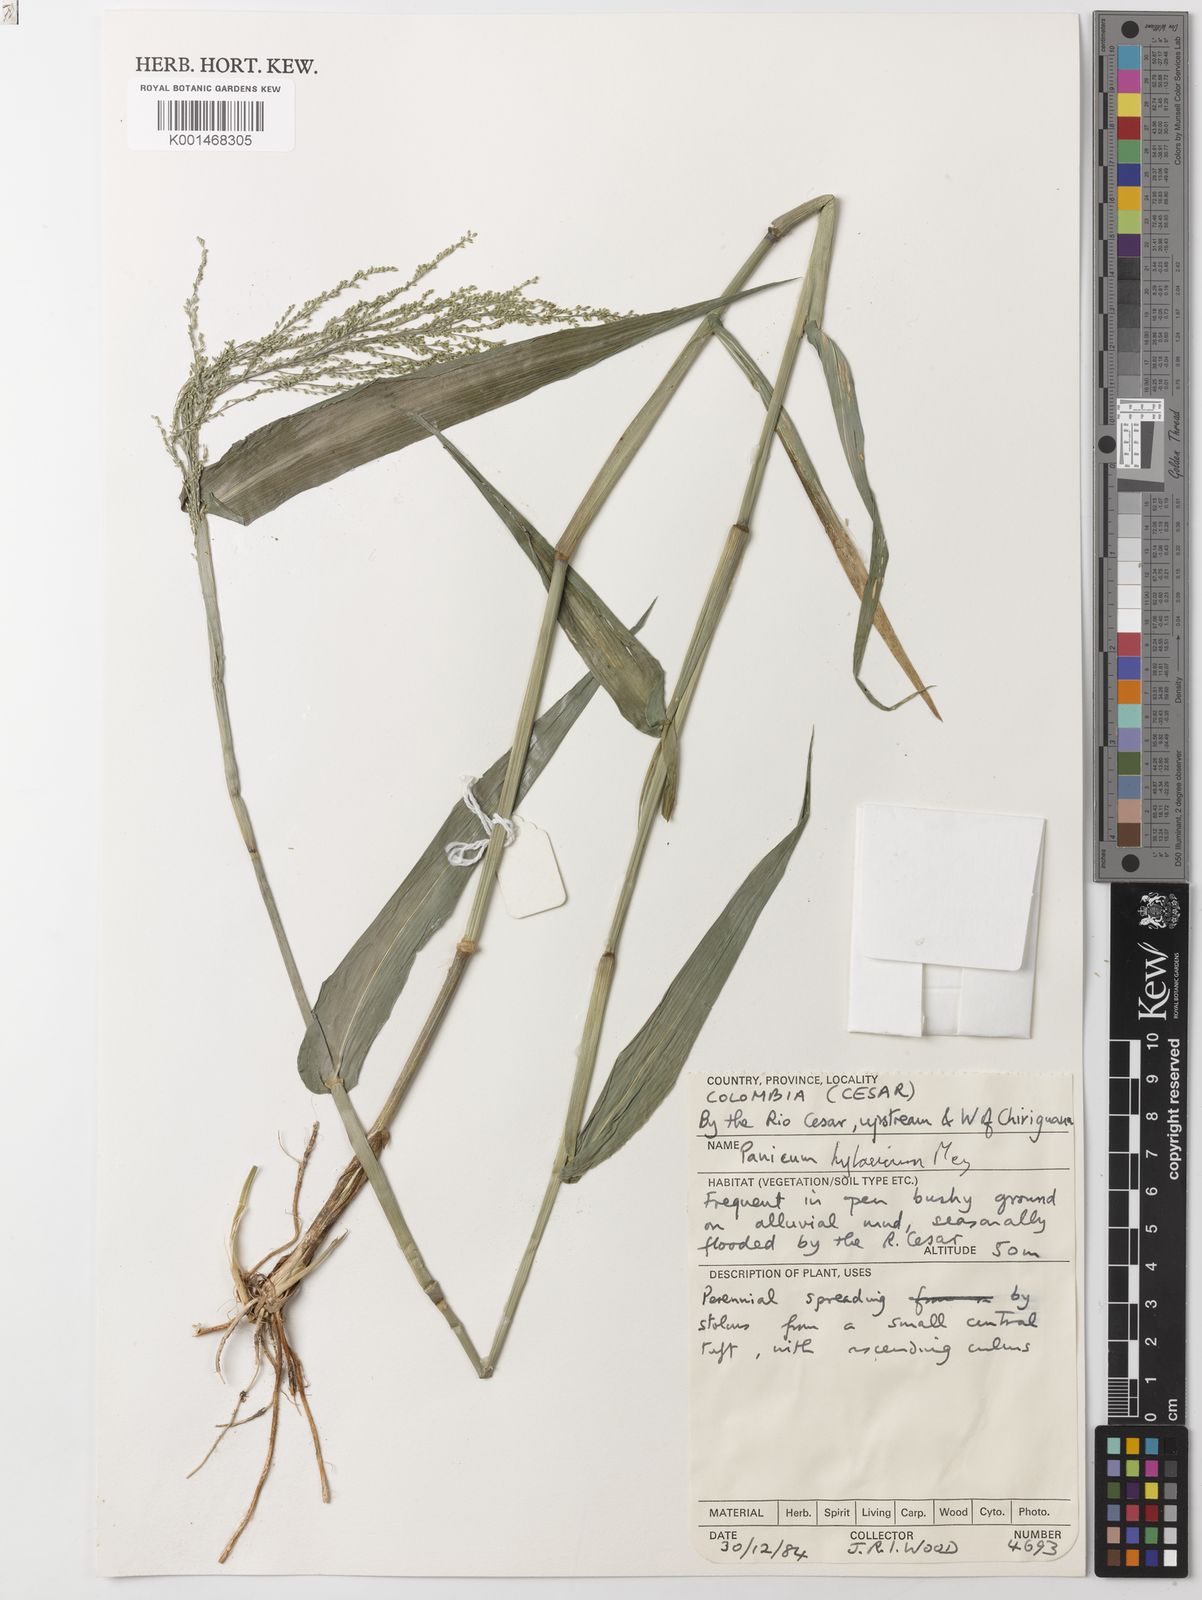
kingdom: Plantae
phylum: Tracheophyta
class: Liliopsida
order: Poales
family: Poaceae
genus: Rugoloa
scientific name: Rugoloa hylaeica
